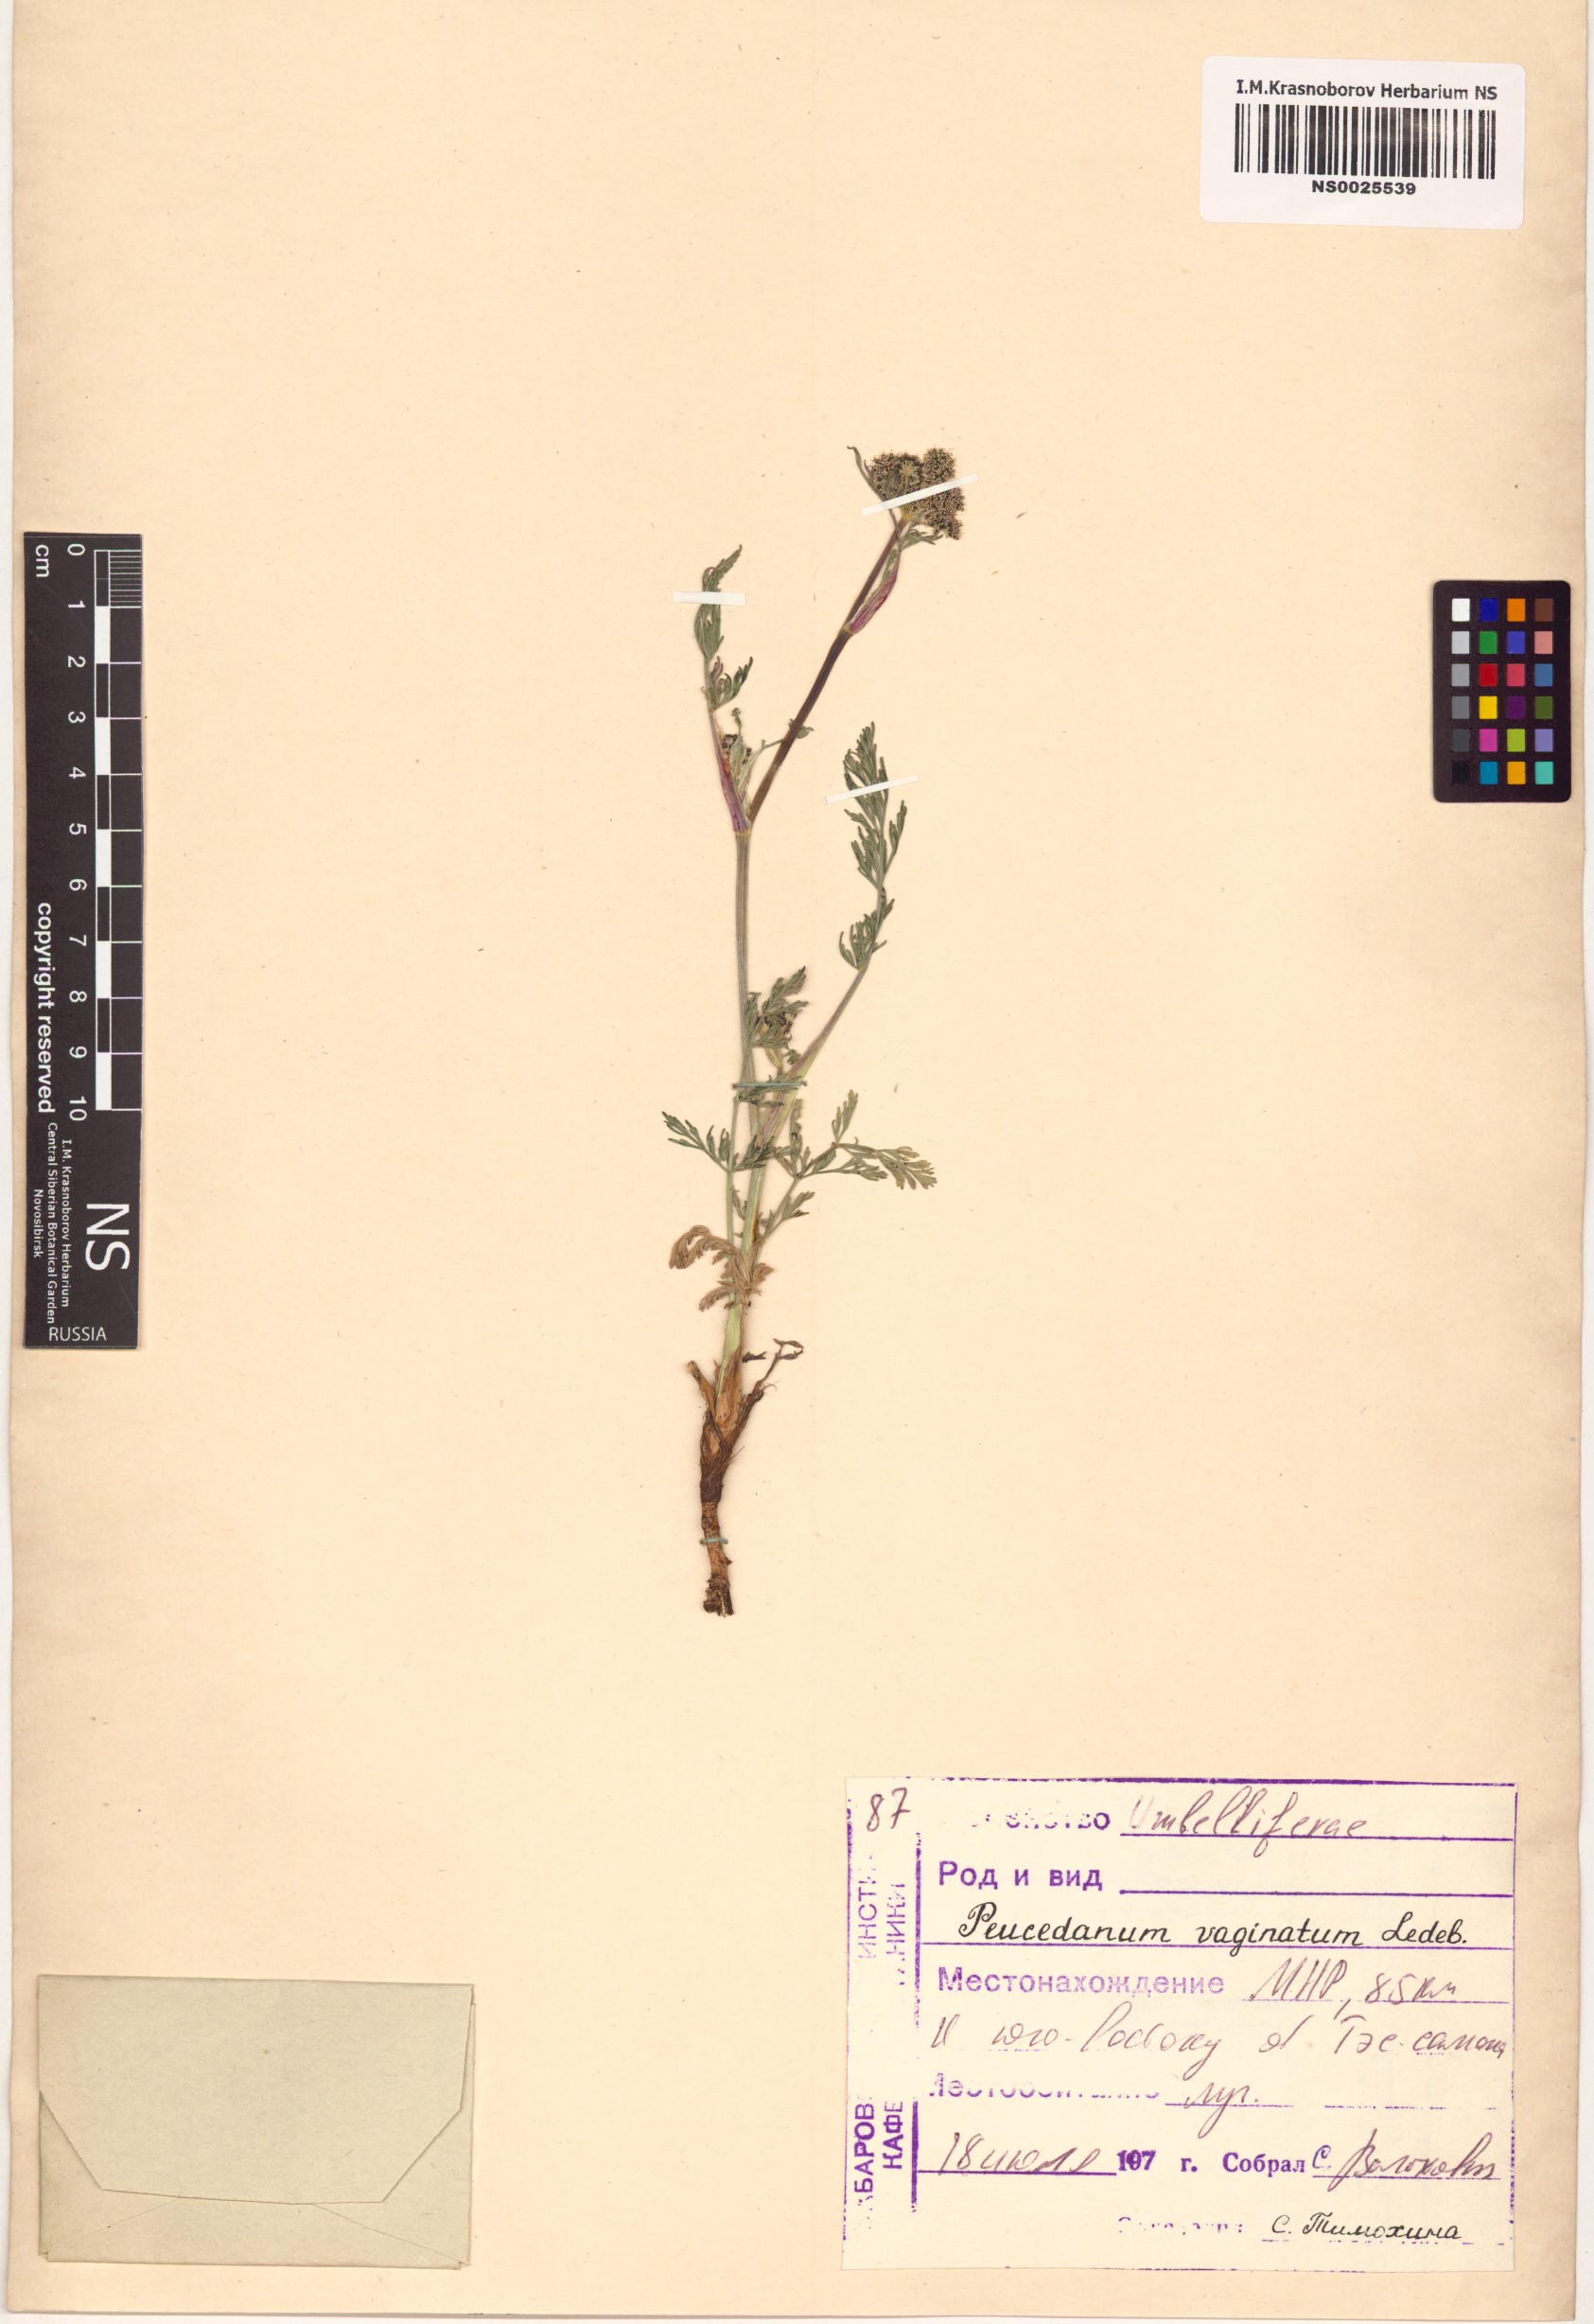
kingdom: Plantae
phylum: Tracheophyta
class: Magnoliopsida
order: Apiales
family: Apiaceae
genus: Peucedanum
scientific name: Peucedanum vaginatum
